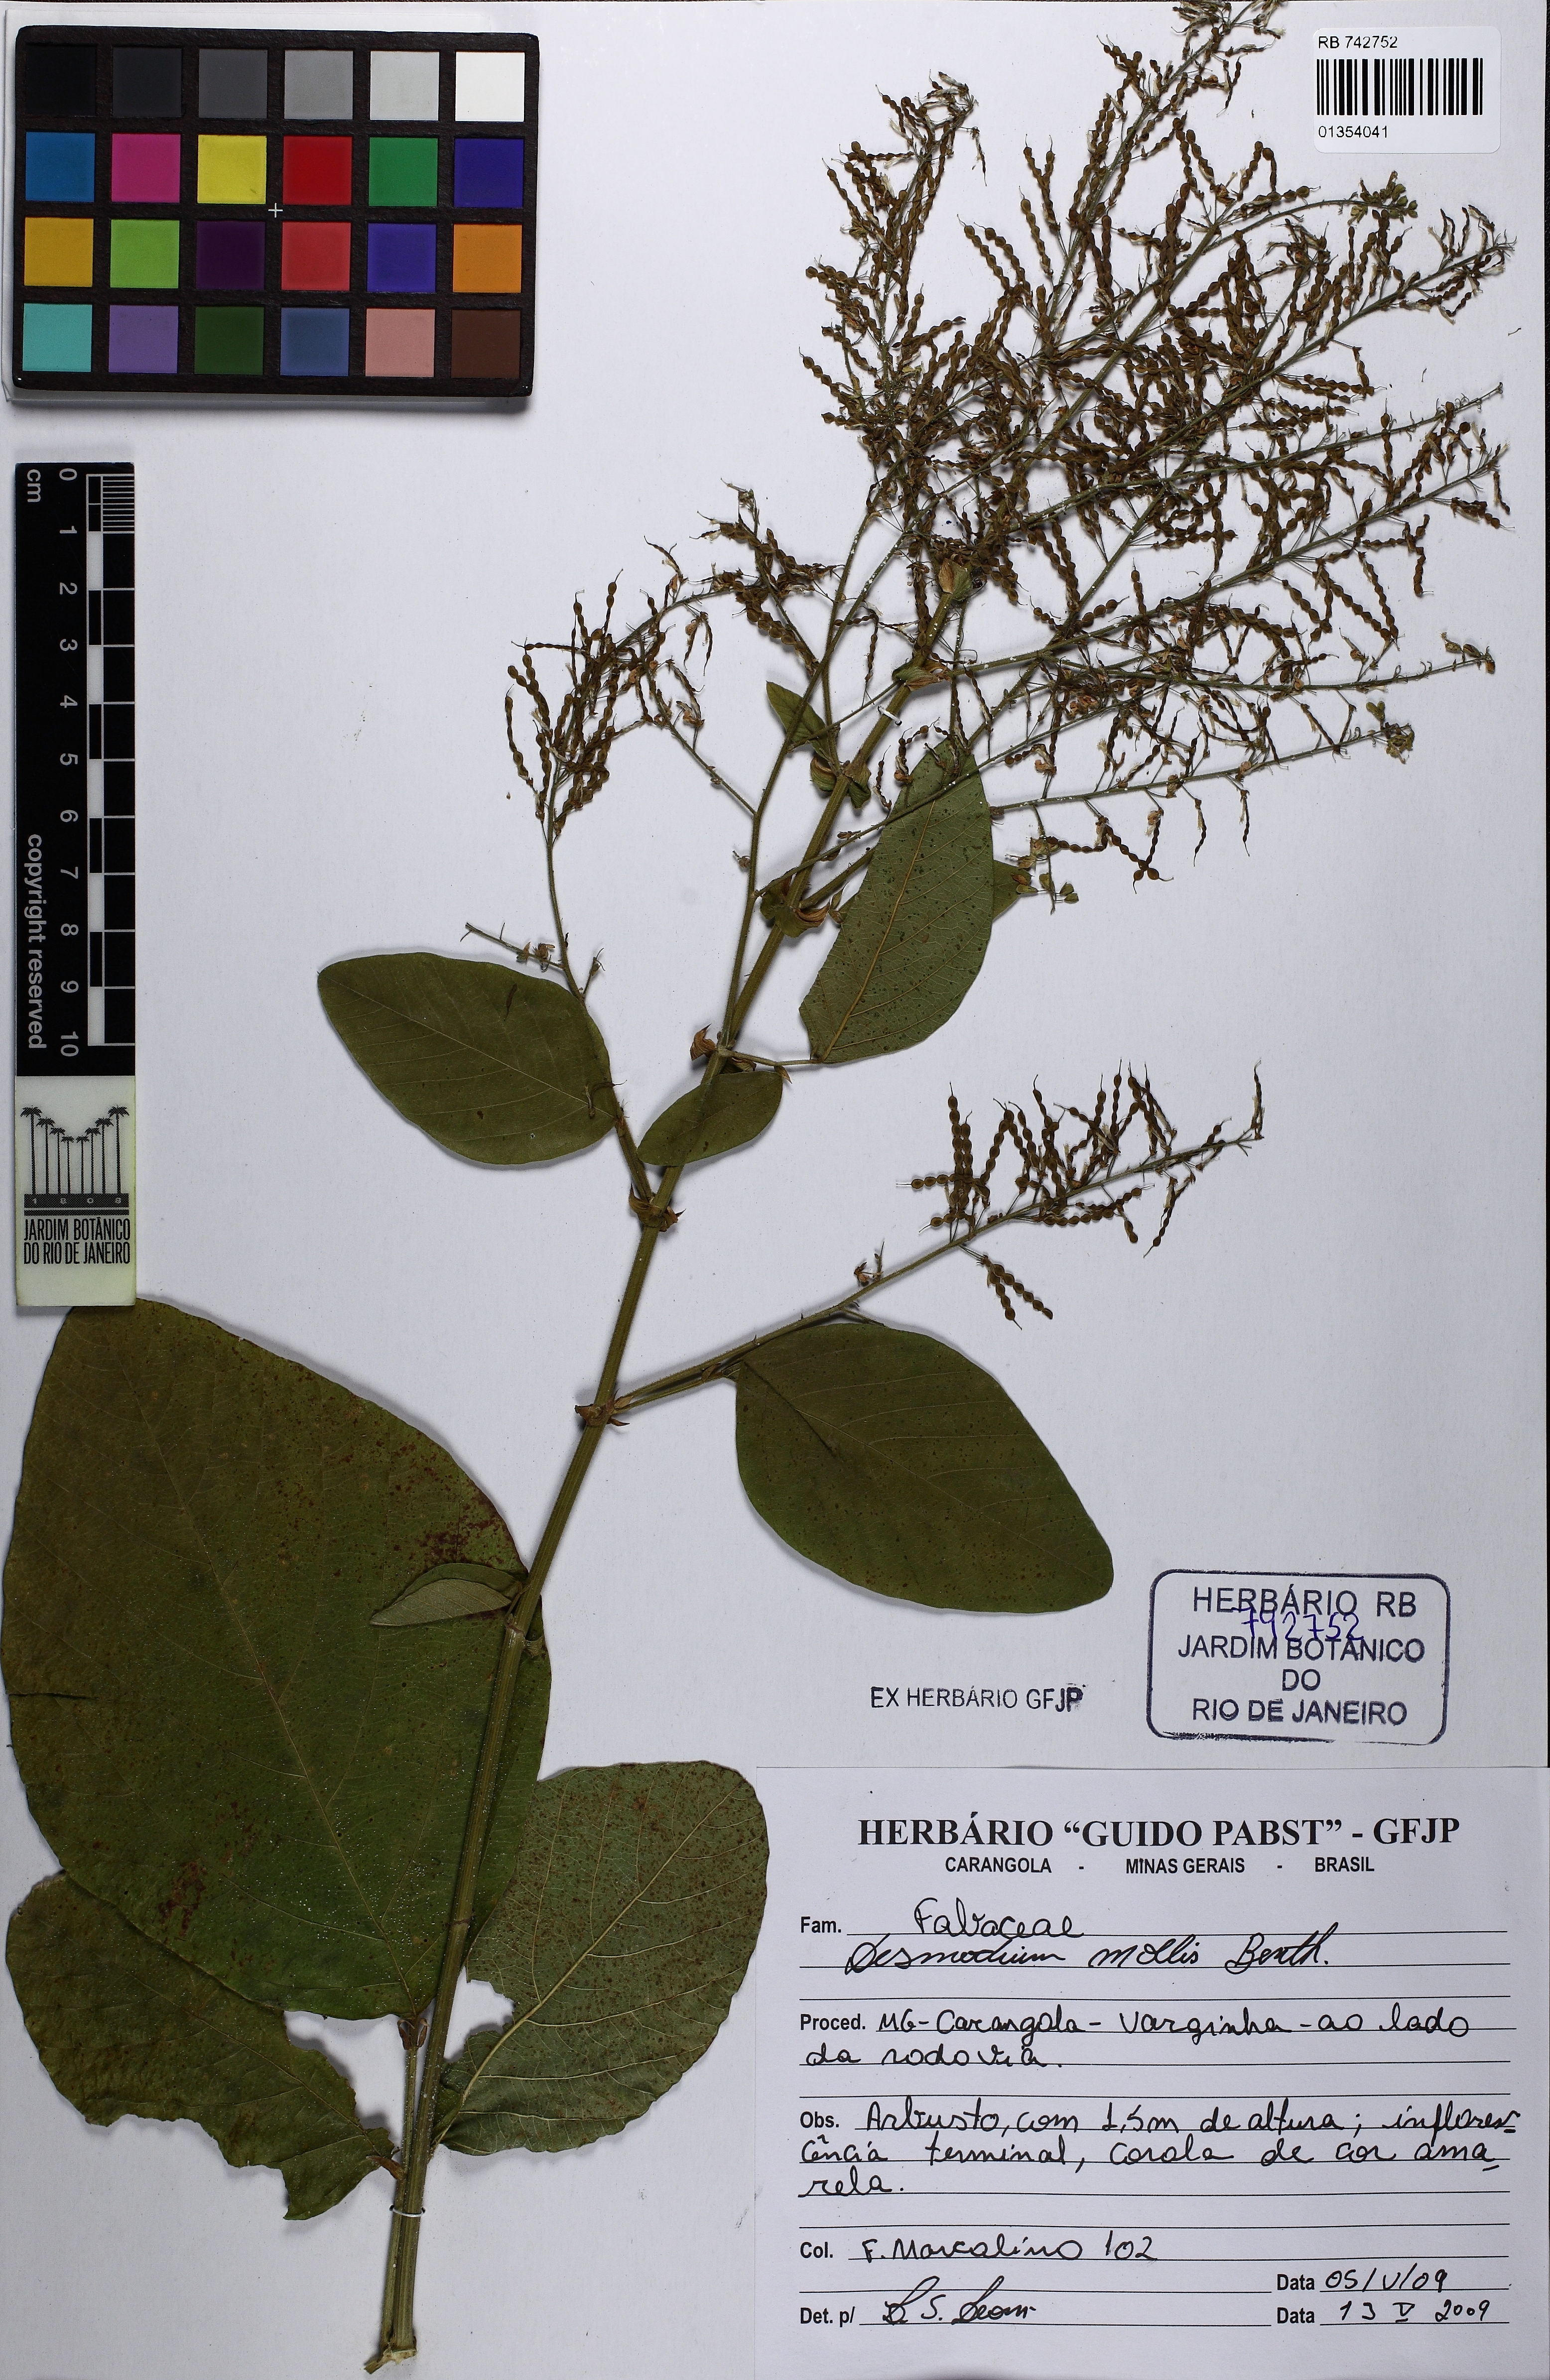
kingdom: Plantae
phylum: Tracheophyta
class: Magnoliopsida
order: Fabales
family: Fabaceae
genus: Grona
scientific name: Grona muelleri
